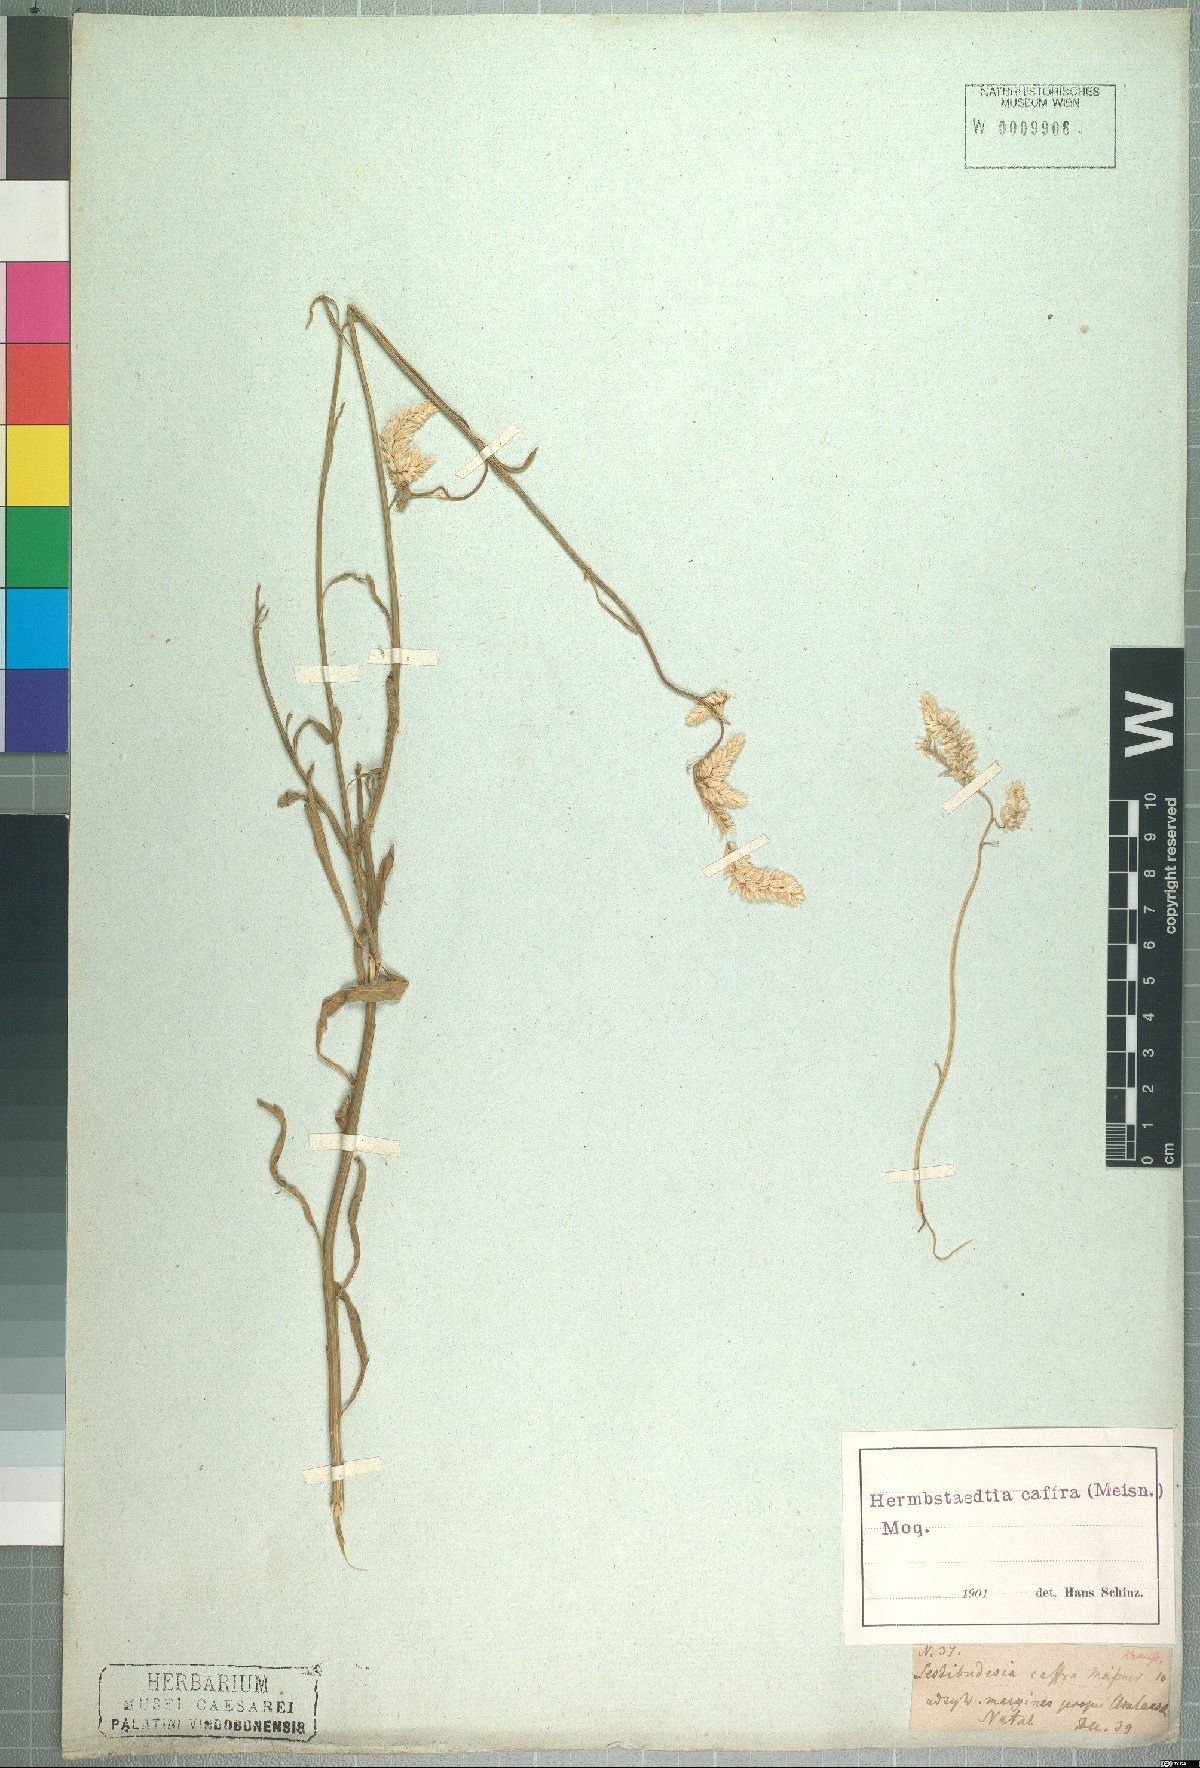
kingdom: Plantae
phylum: Tracheophyta
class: Magnoliopsida
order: Caryophyllales
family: Amaranthaceae
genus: Hermbstaedtia
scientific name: Hermbstaedtia caffra
